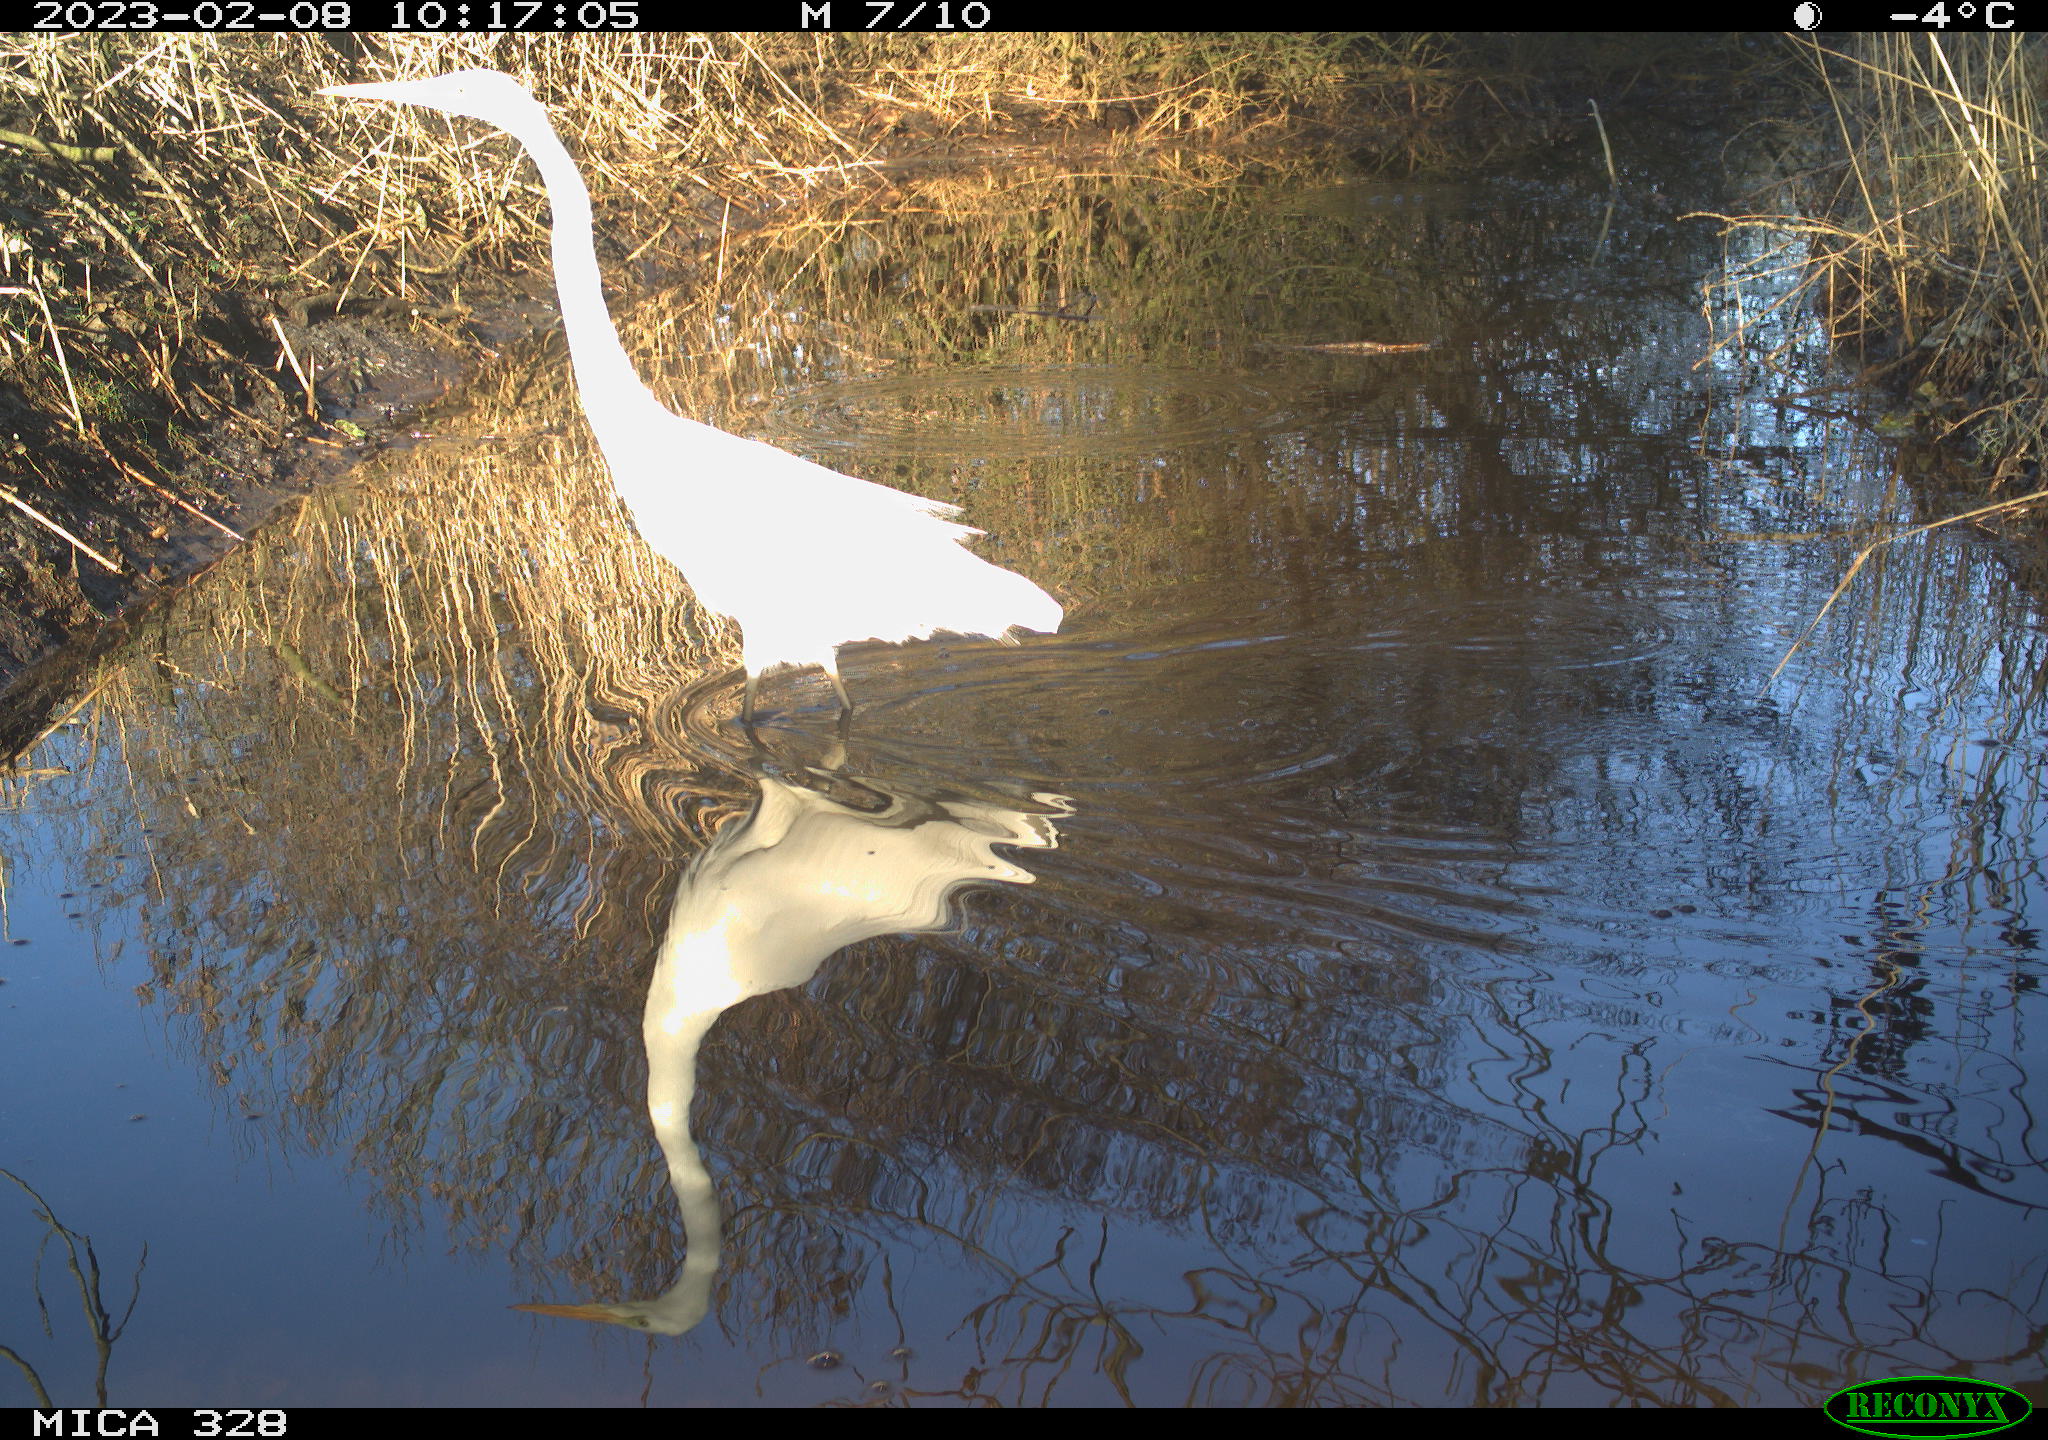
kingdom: Animalia
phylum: Chordata
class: Aves
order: Pelecaniformes
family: Ardeidae
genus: Ardea
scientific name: Ardea alba
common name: Great egret
